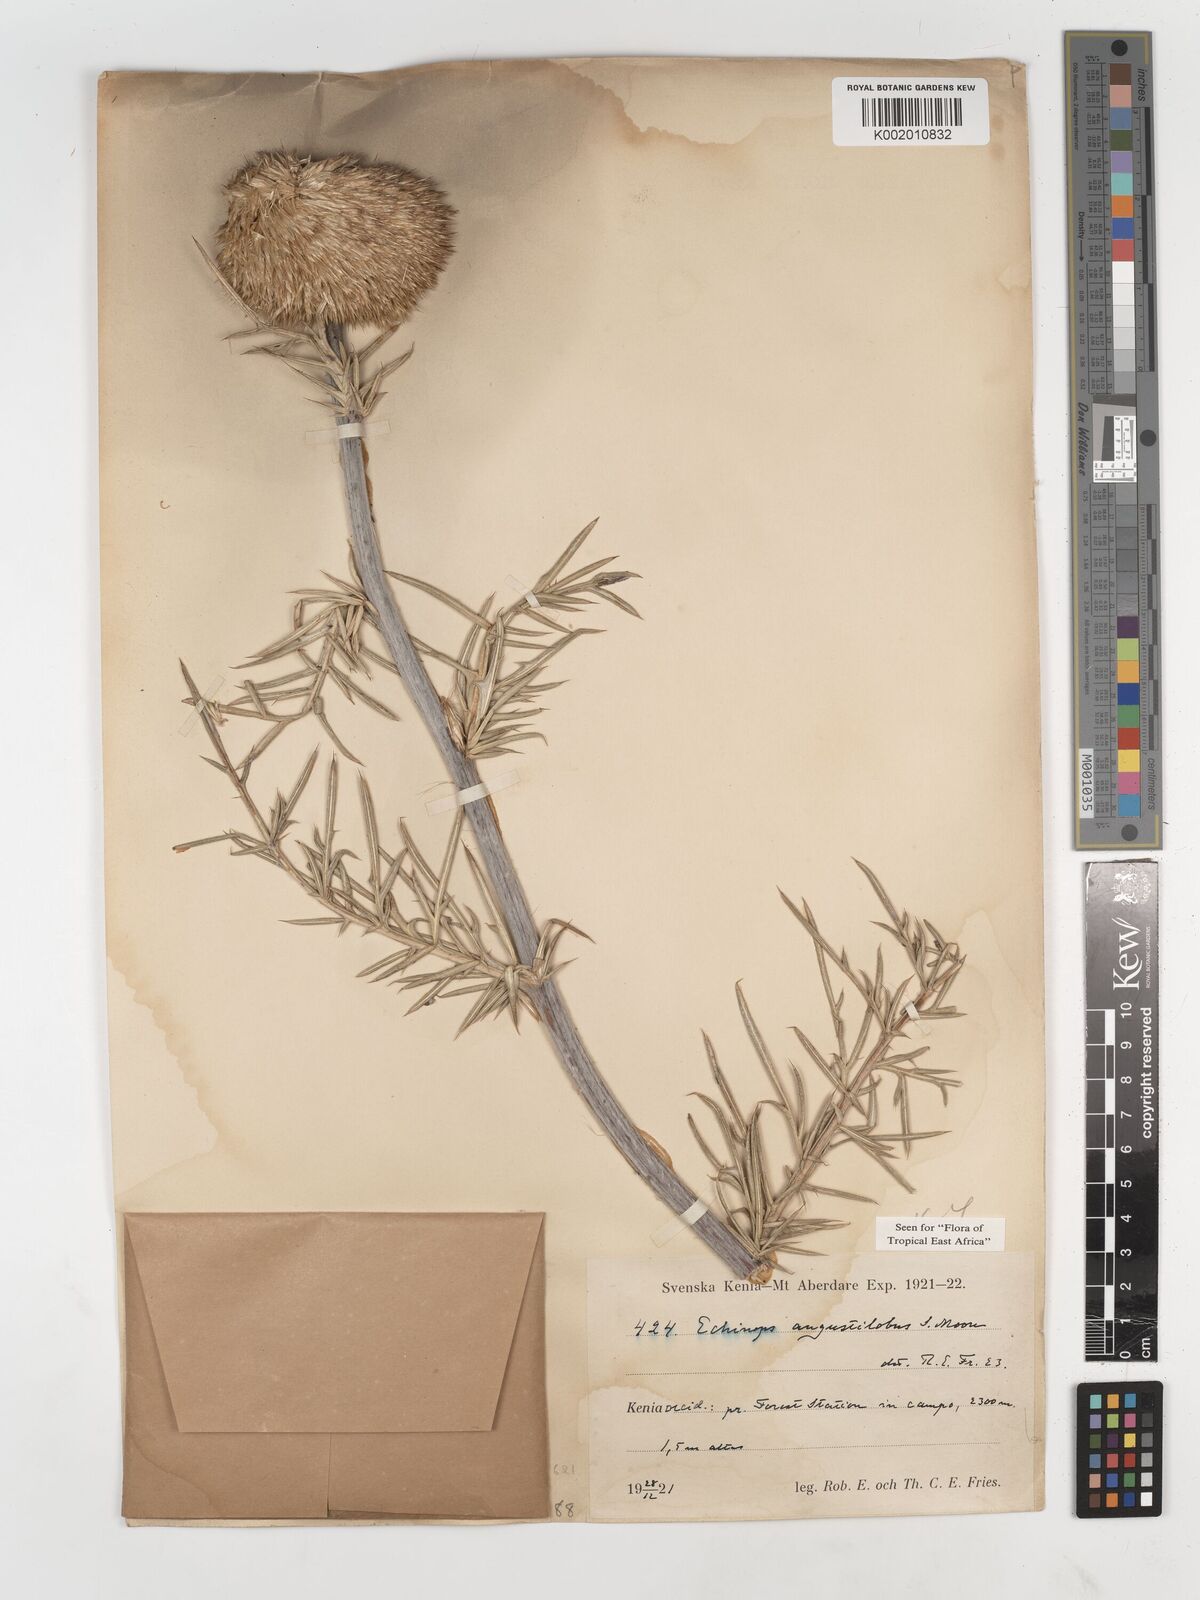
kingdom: Plantae
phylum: Tracheophyta
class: Magnoliopsida
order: Asterales
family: Asteraceae
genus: Echinops
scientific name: Echinops angustilobus
